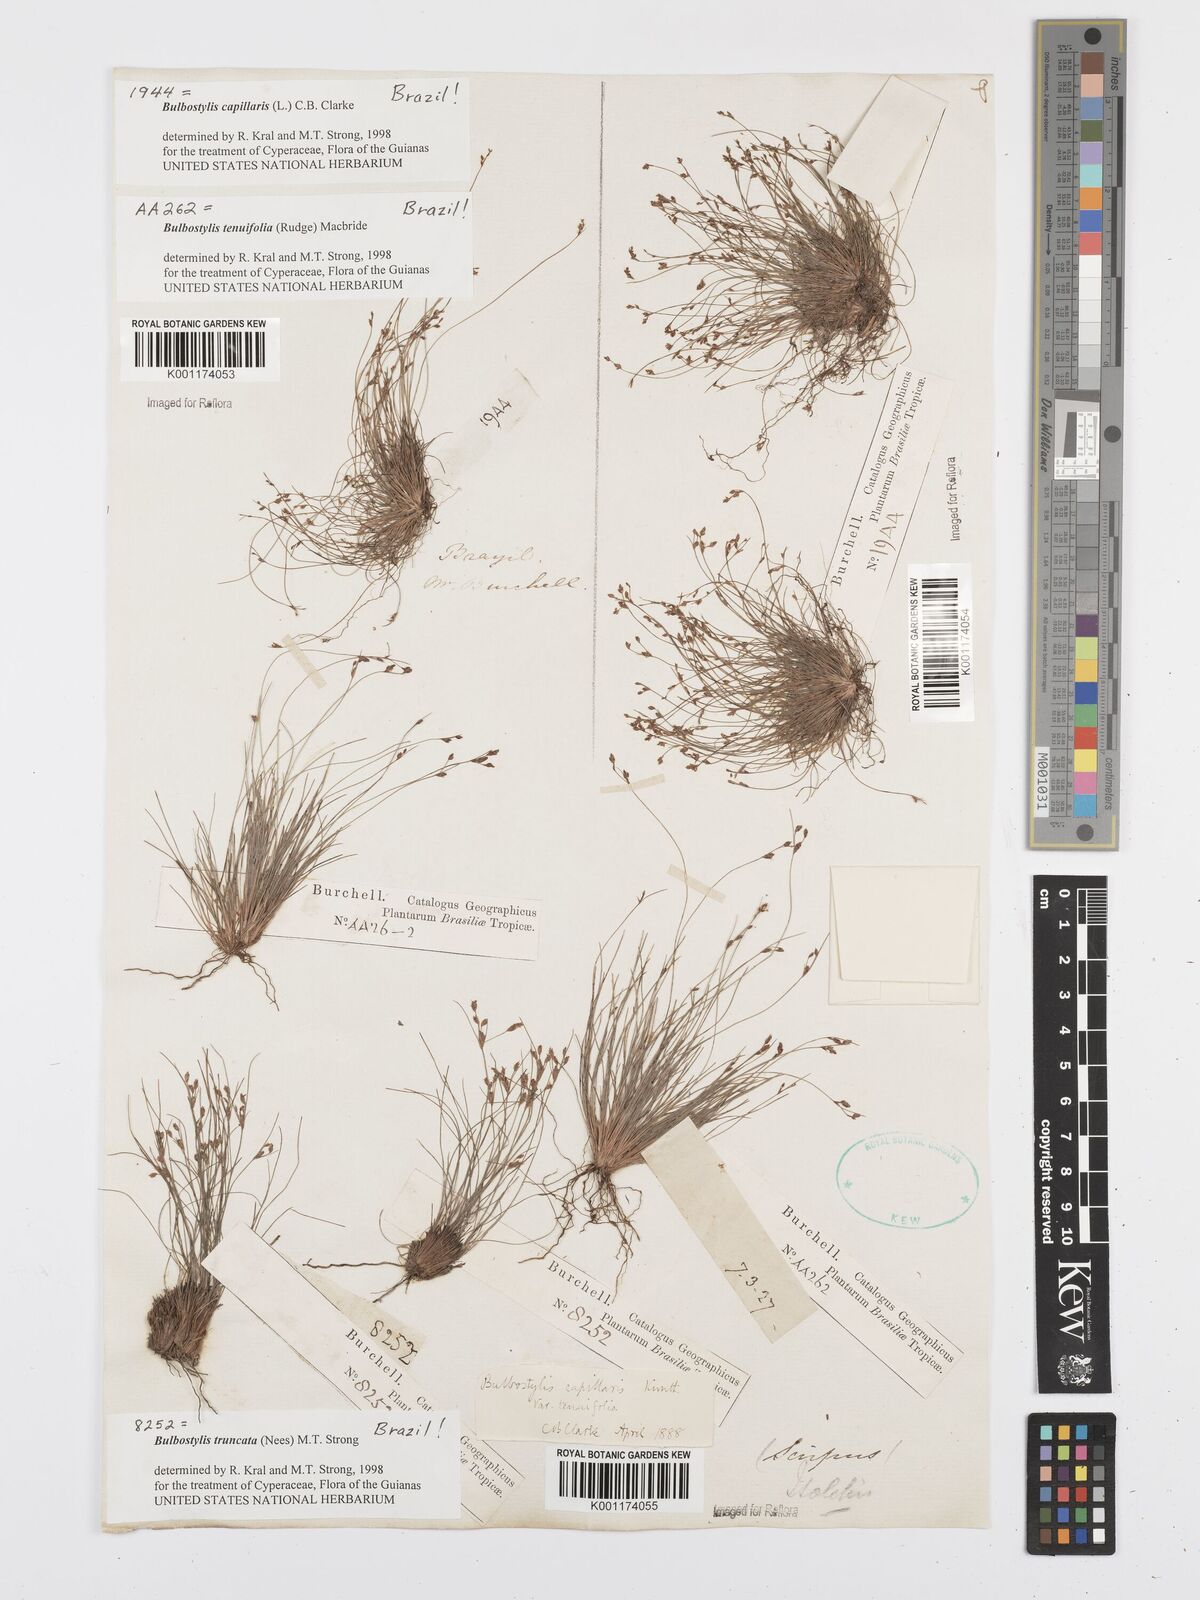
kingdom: Plantae
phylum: Tracheophyta
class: Liliopsida
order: Poales
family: Cyperaceae
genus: Bulbostylis
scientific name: Bulbostylis truncata
